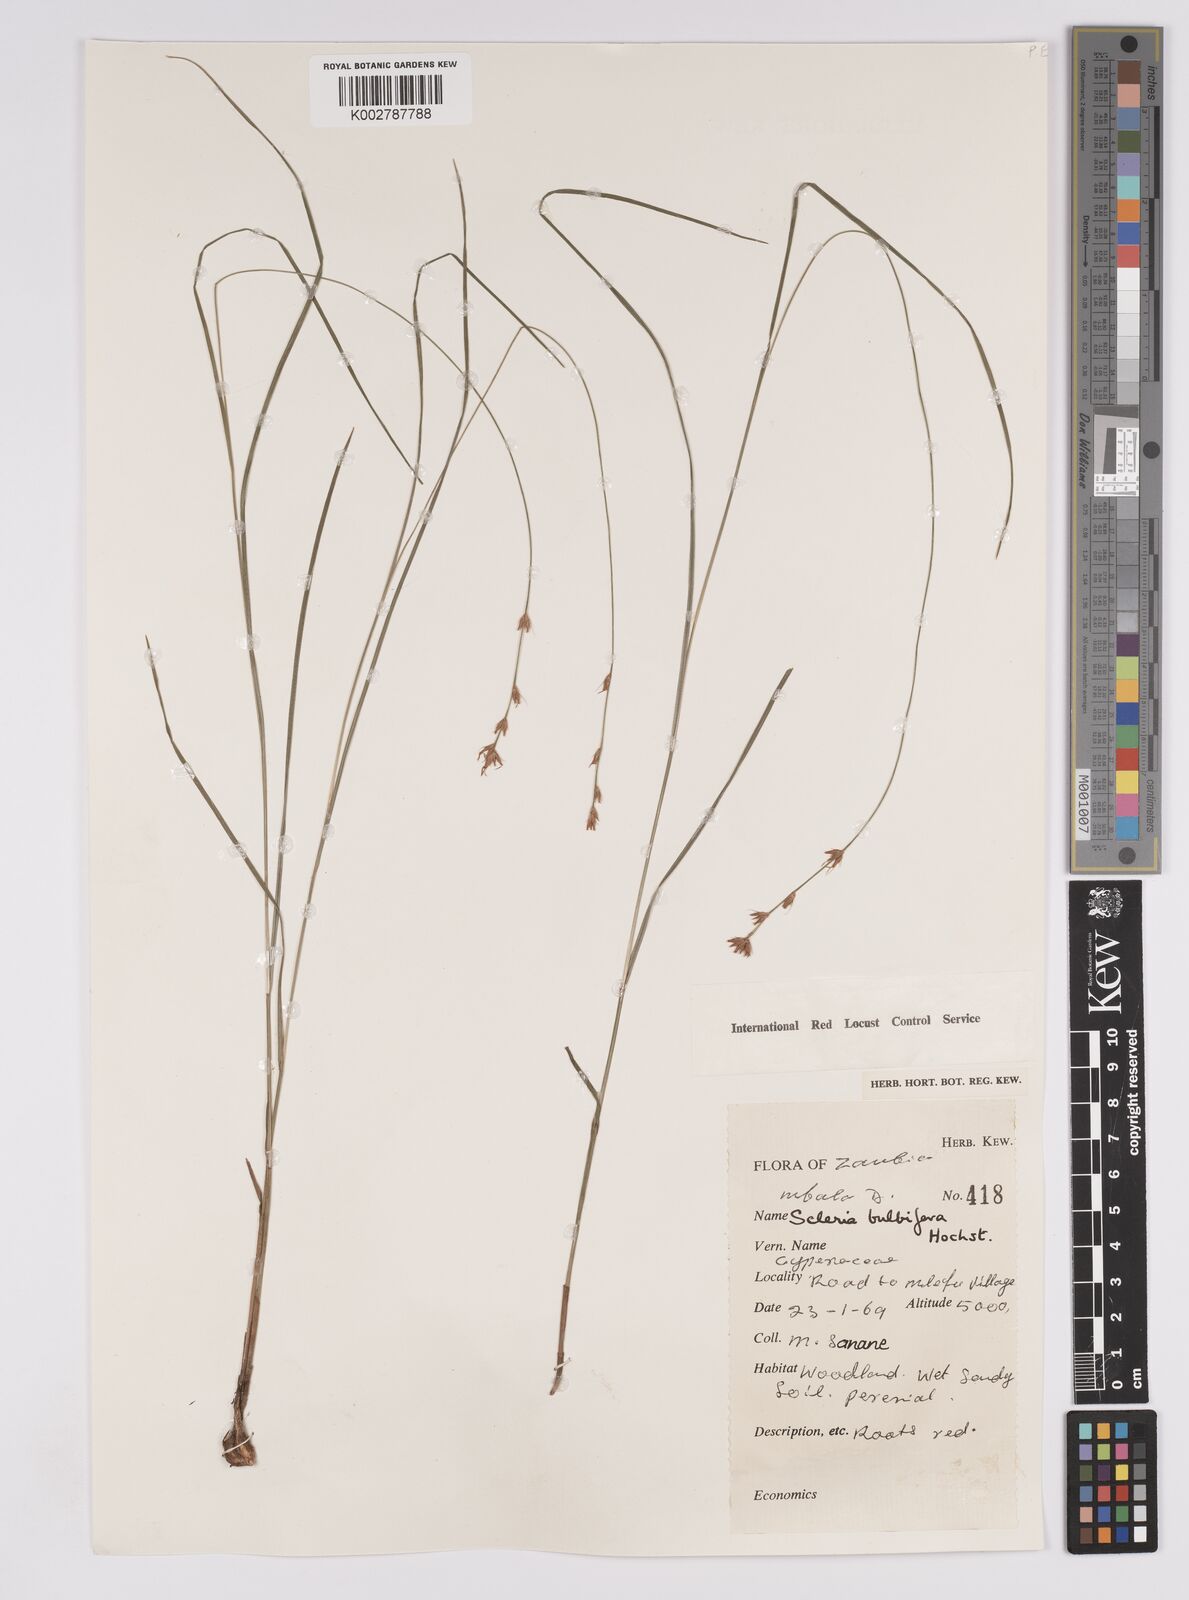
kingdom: Plantae
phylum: Tracheophyta
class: Liliopsida
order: Poales
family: Cyperaceae
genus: Scleria
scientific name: Scleria bulbifera
